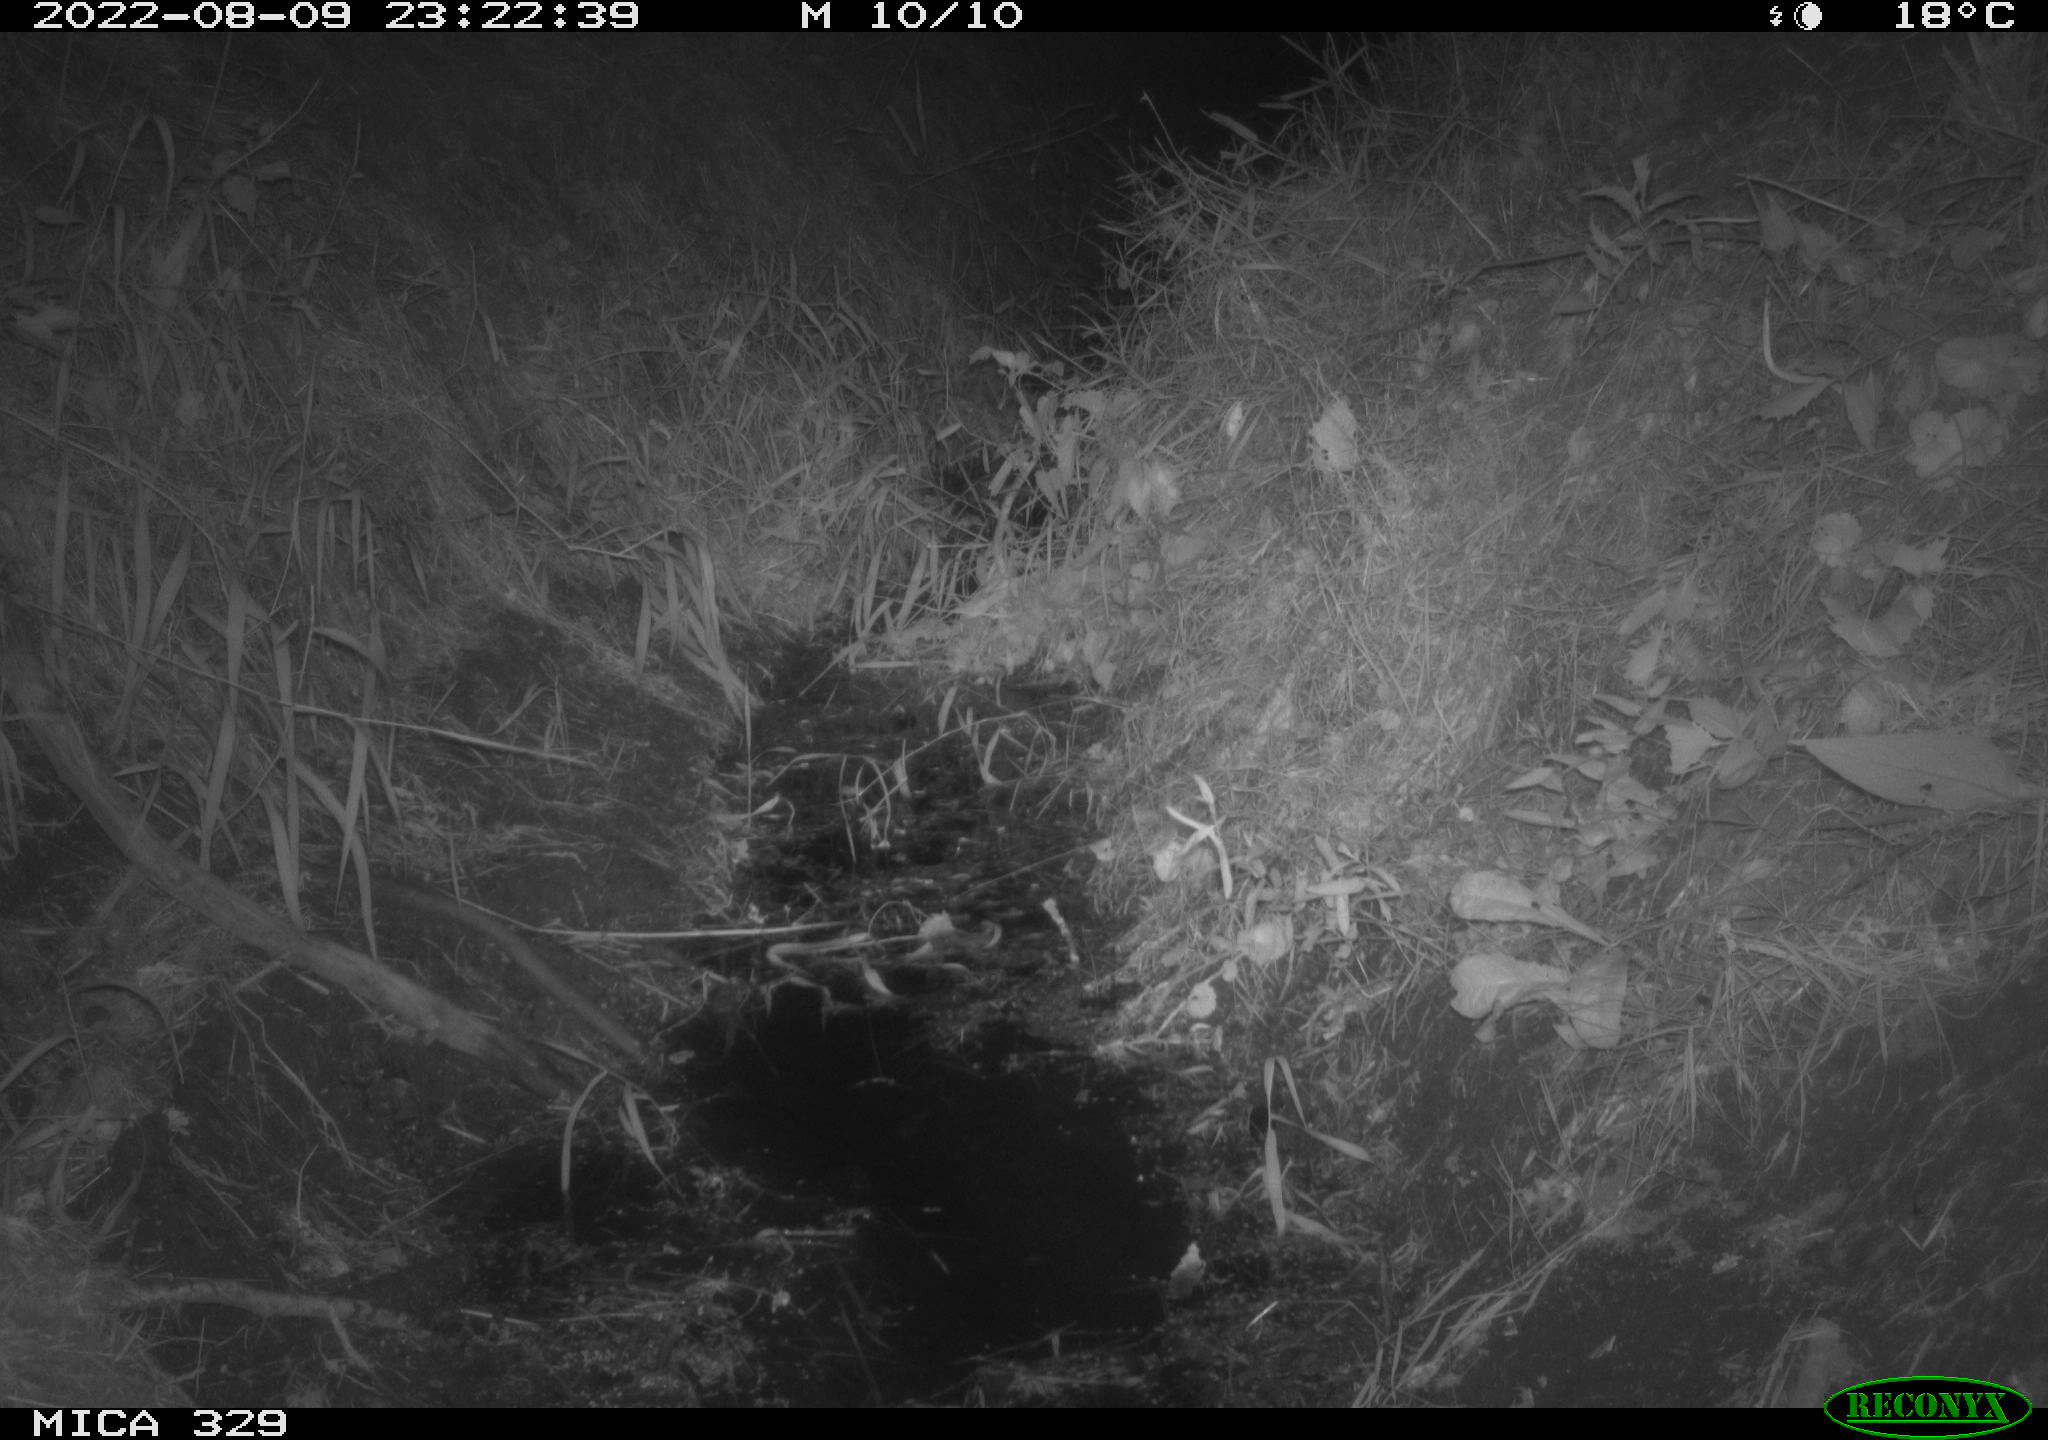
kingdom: Animalia
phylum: Chordata
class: Mammalia
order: Rodentia
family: Muridae
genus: Rattus
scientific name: Rattus norvegicus
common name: Brown rat
